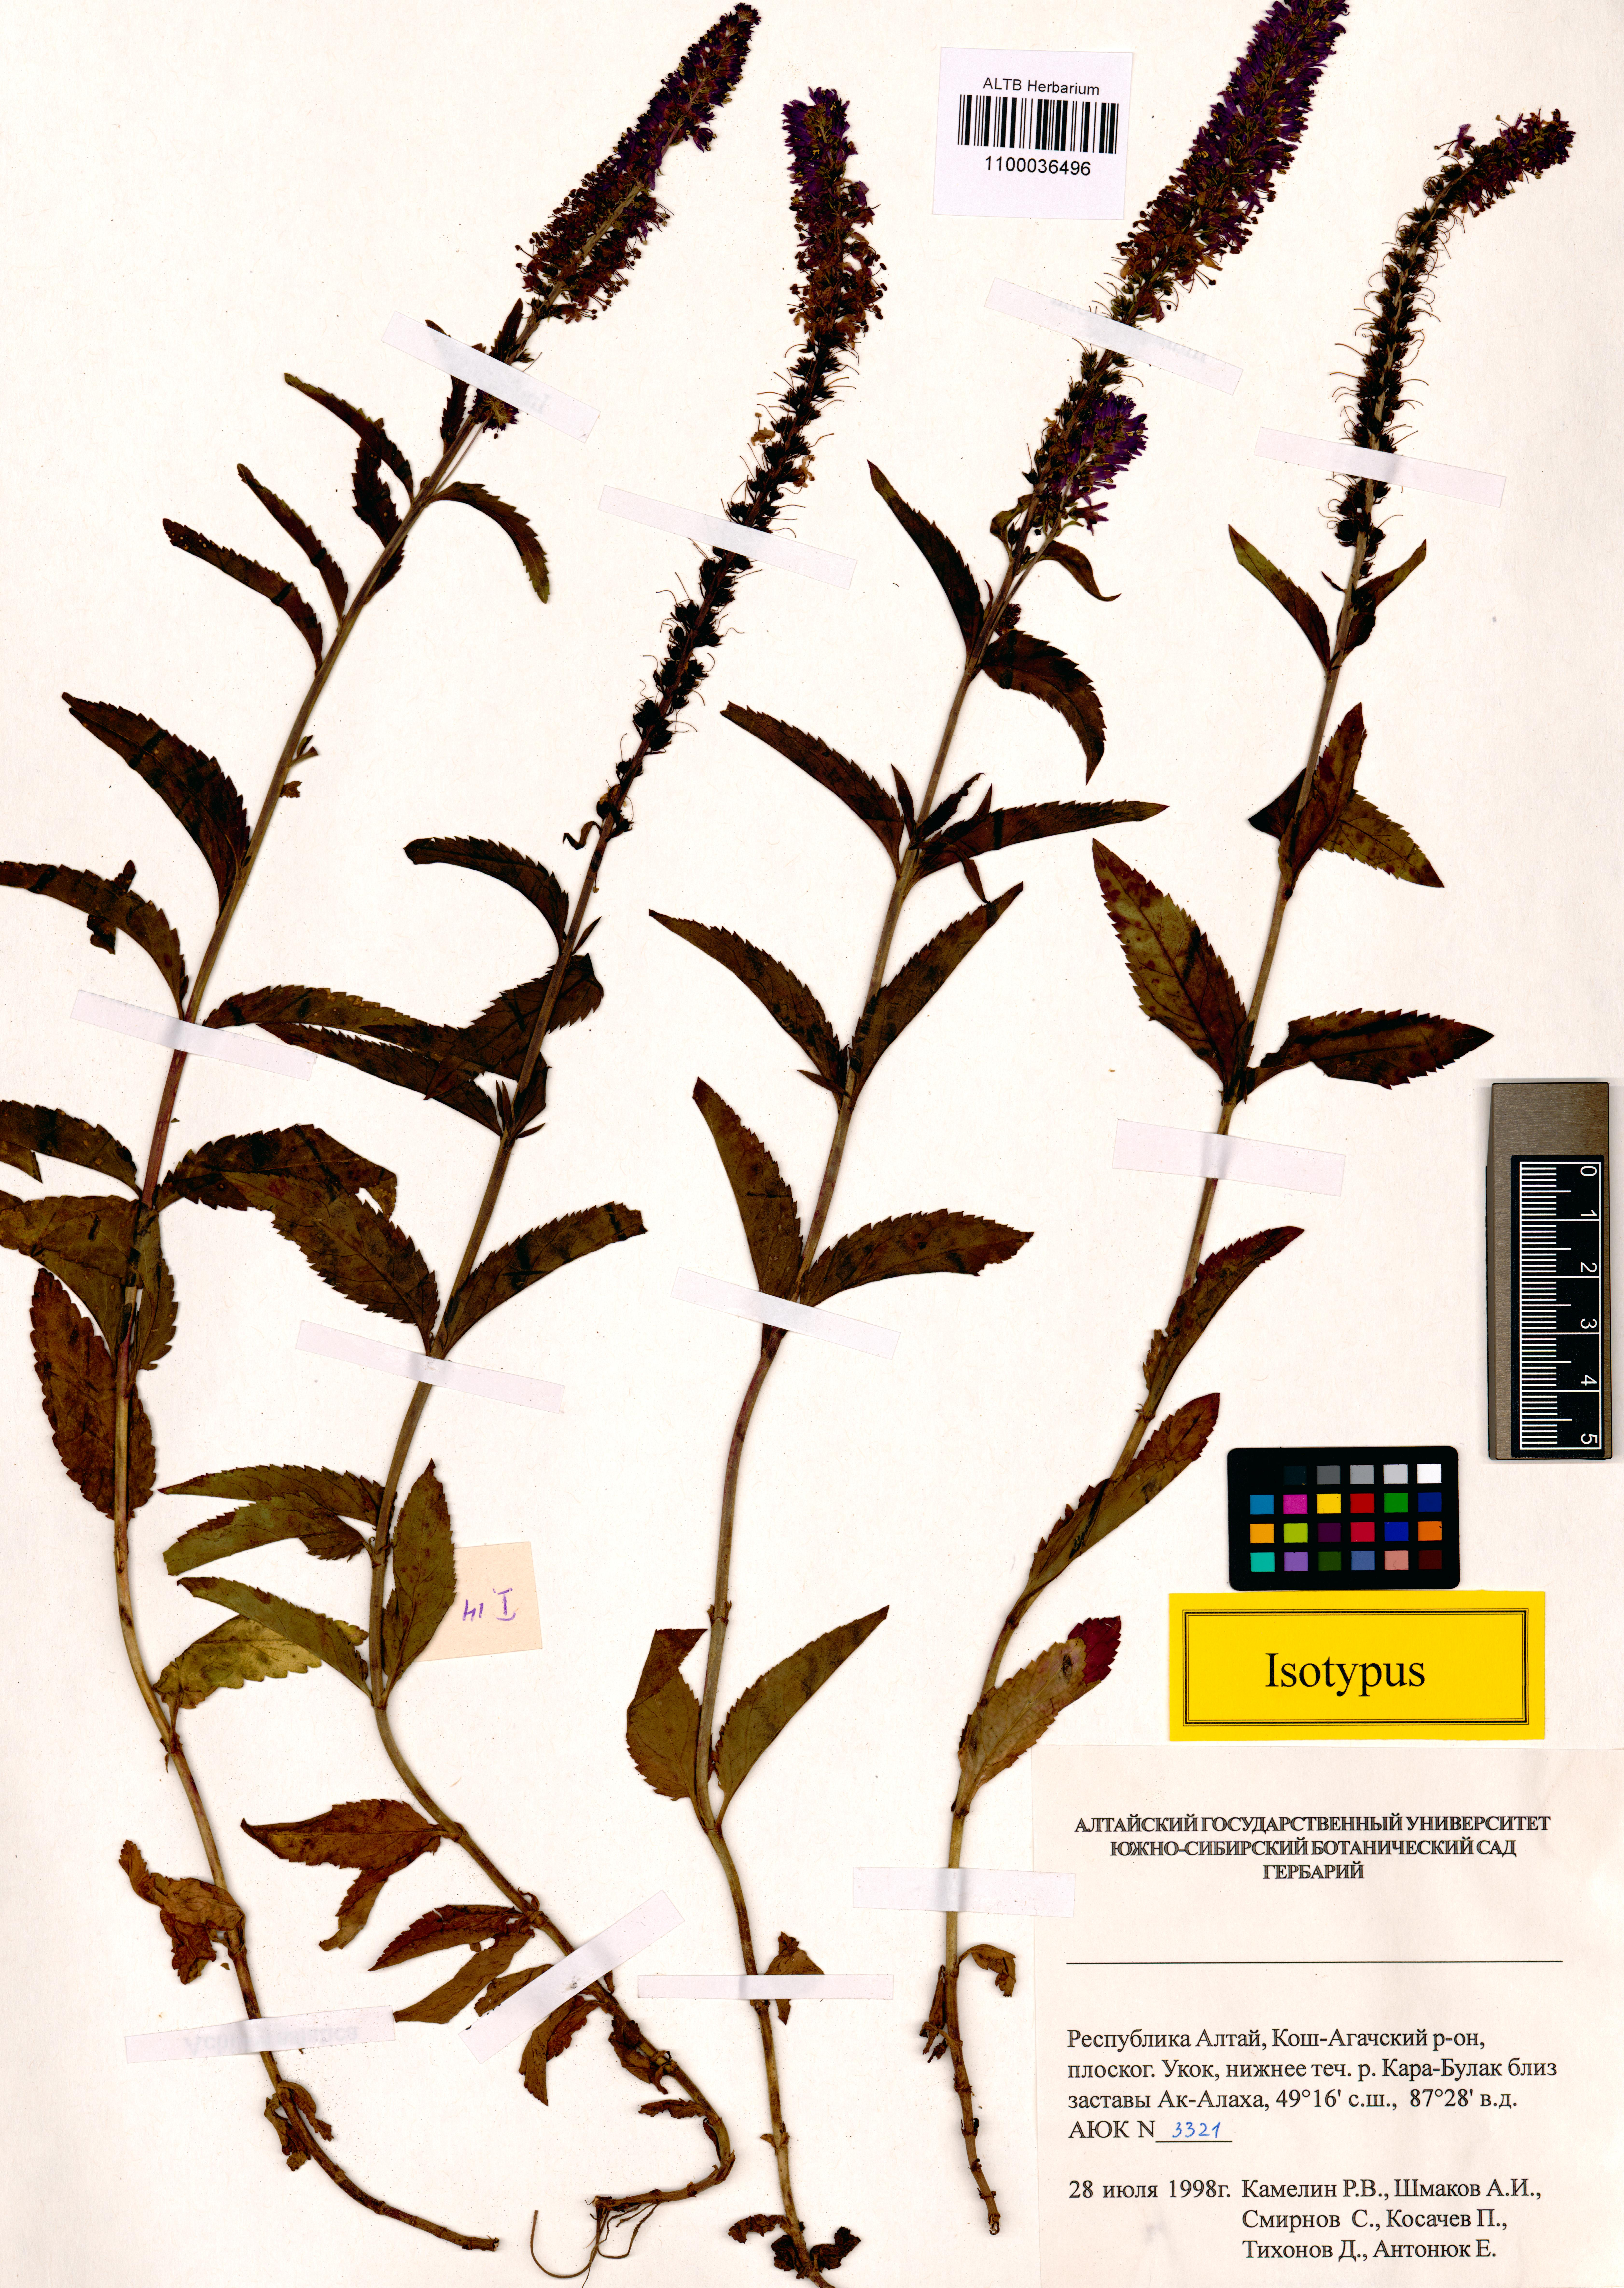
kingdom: Plantae
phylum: Tracheophyta
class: Magnoliopsida
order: Lamiales
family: Plantaginaceae
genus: Veronica
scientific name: Veronica schmakovii
